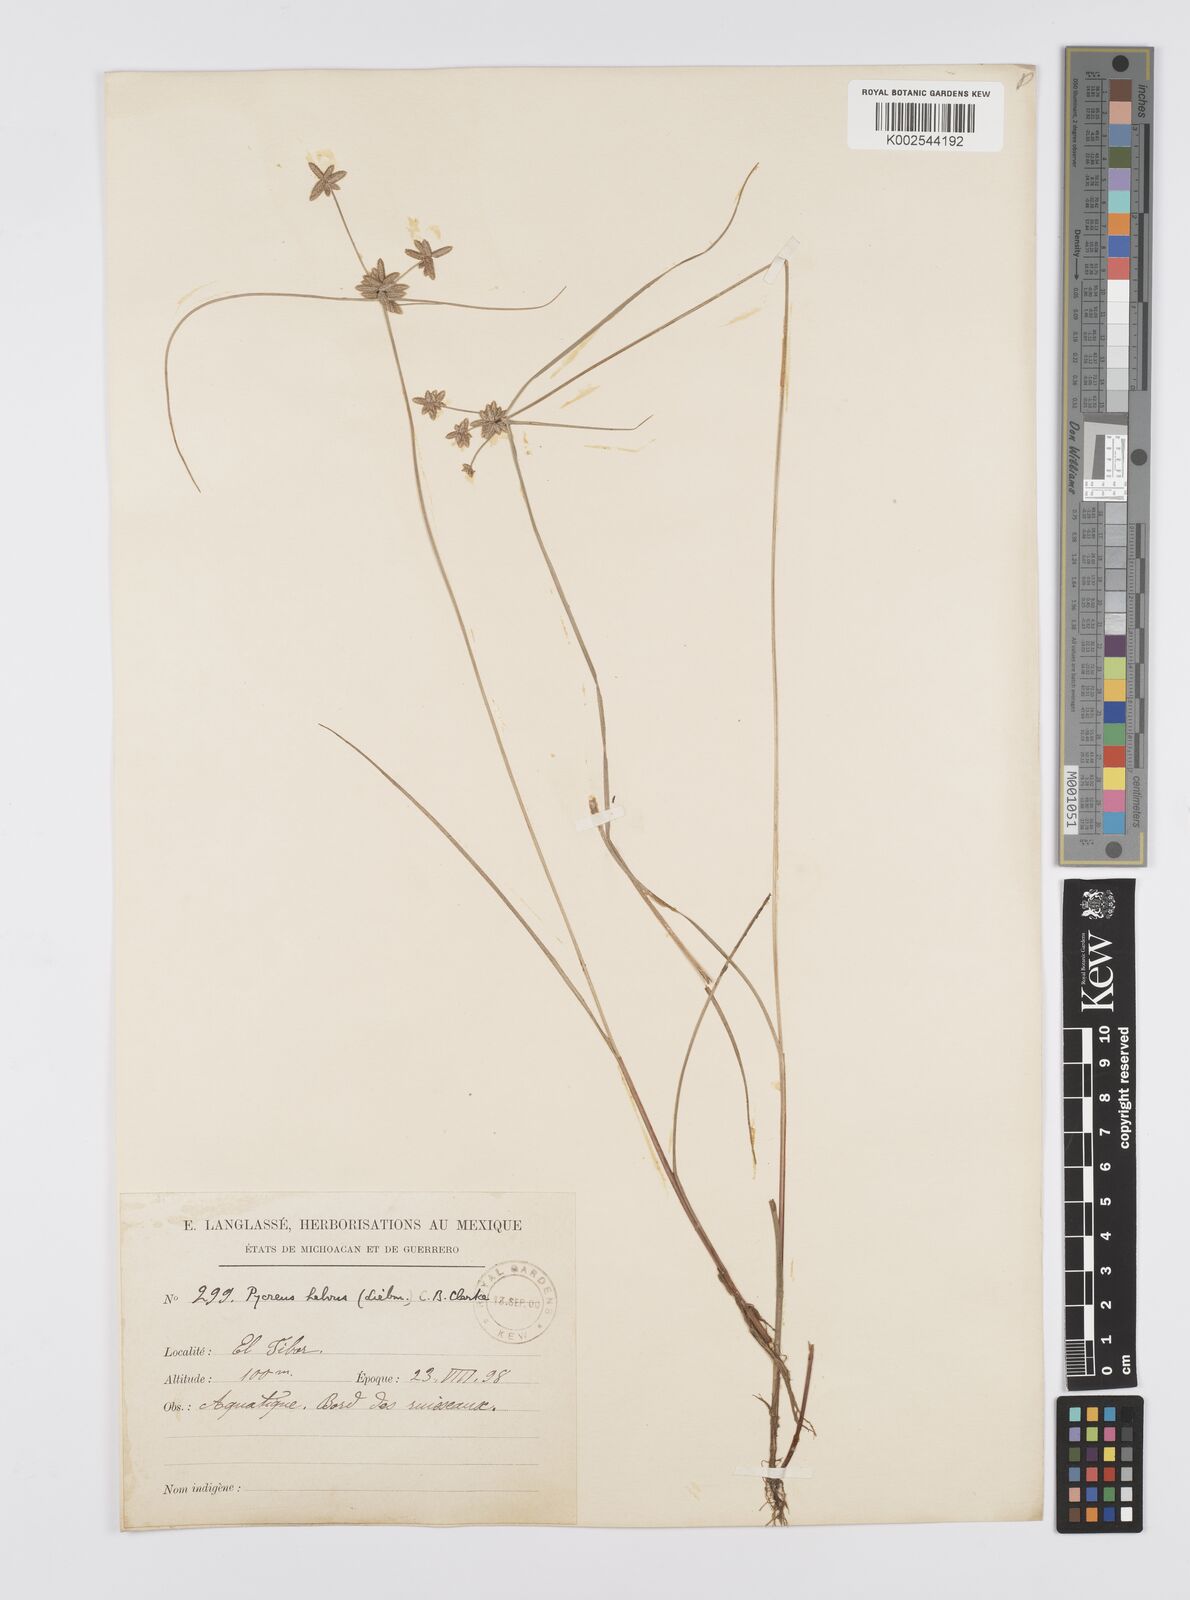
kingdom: Plantae
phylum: Tracheophyta
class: Liliopsida
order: Poales
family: Cyperaceae
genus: Cyperus
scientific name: Cyperus
